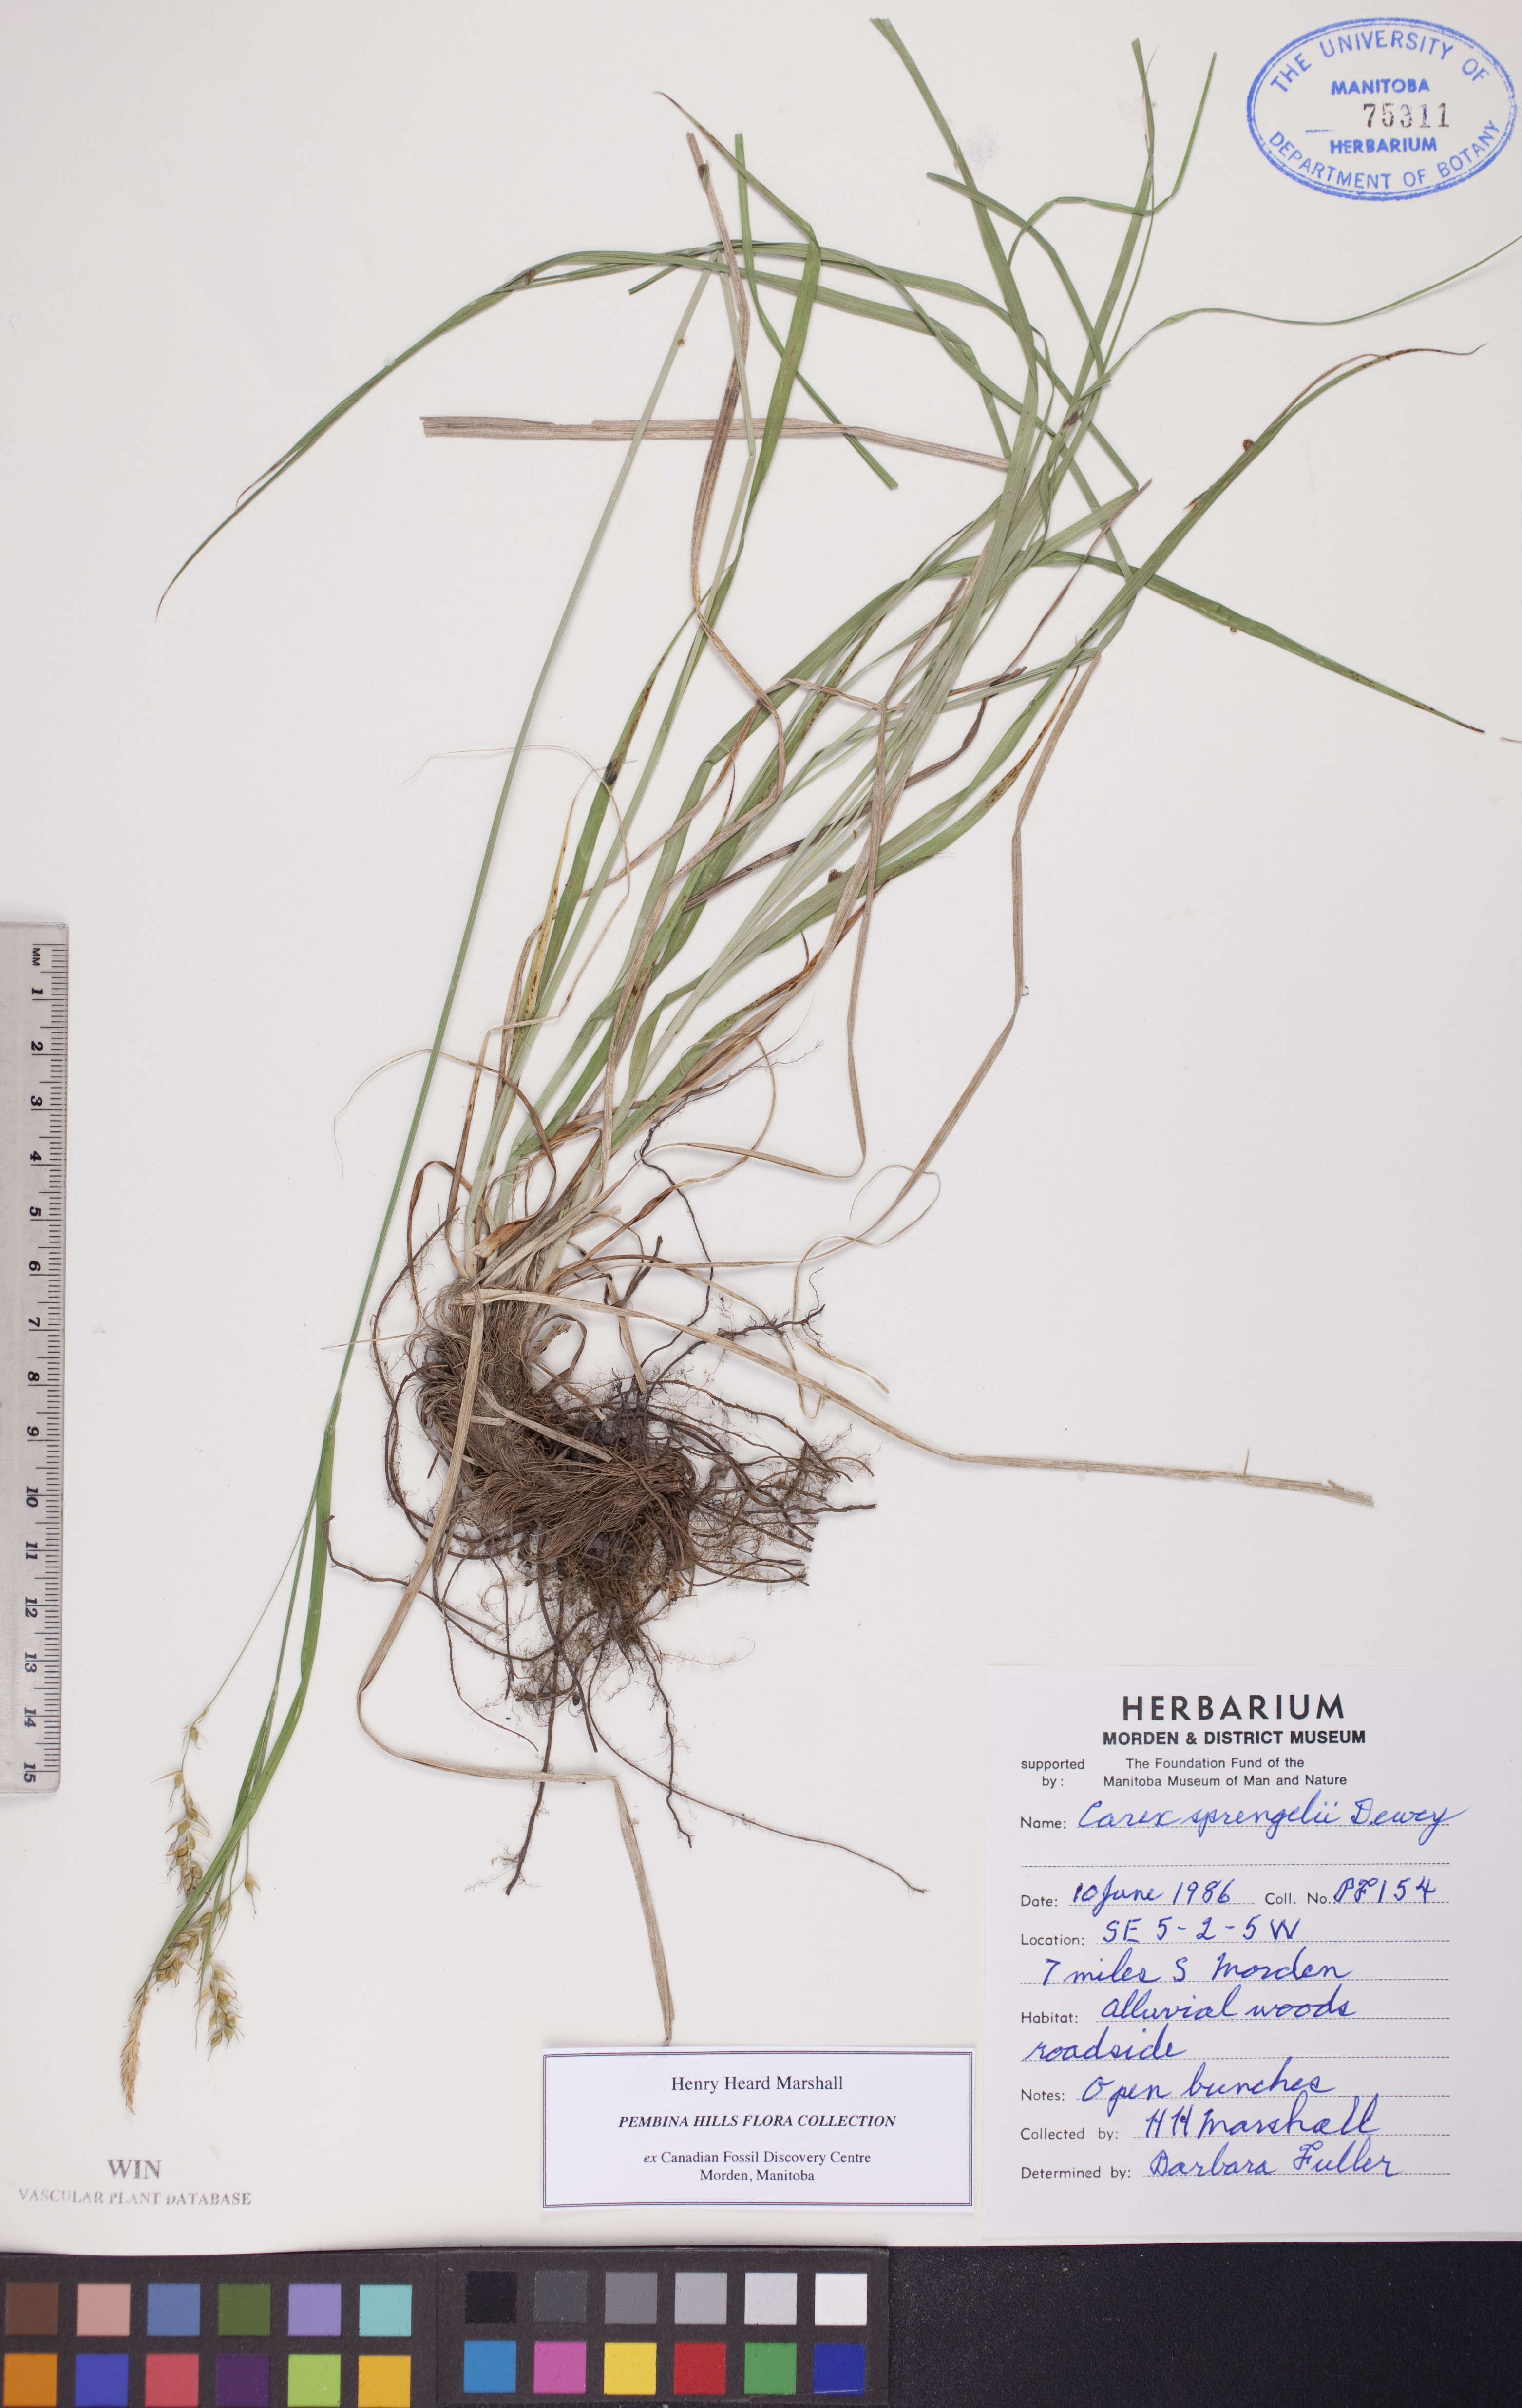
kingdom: Plantae
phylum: Tracheophyta
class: Liliopsida
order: Poales
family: Cyperaceae
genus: Carex
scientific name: Carex sprengelii
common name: Long-beaked sedge
